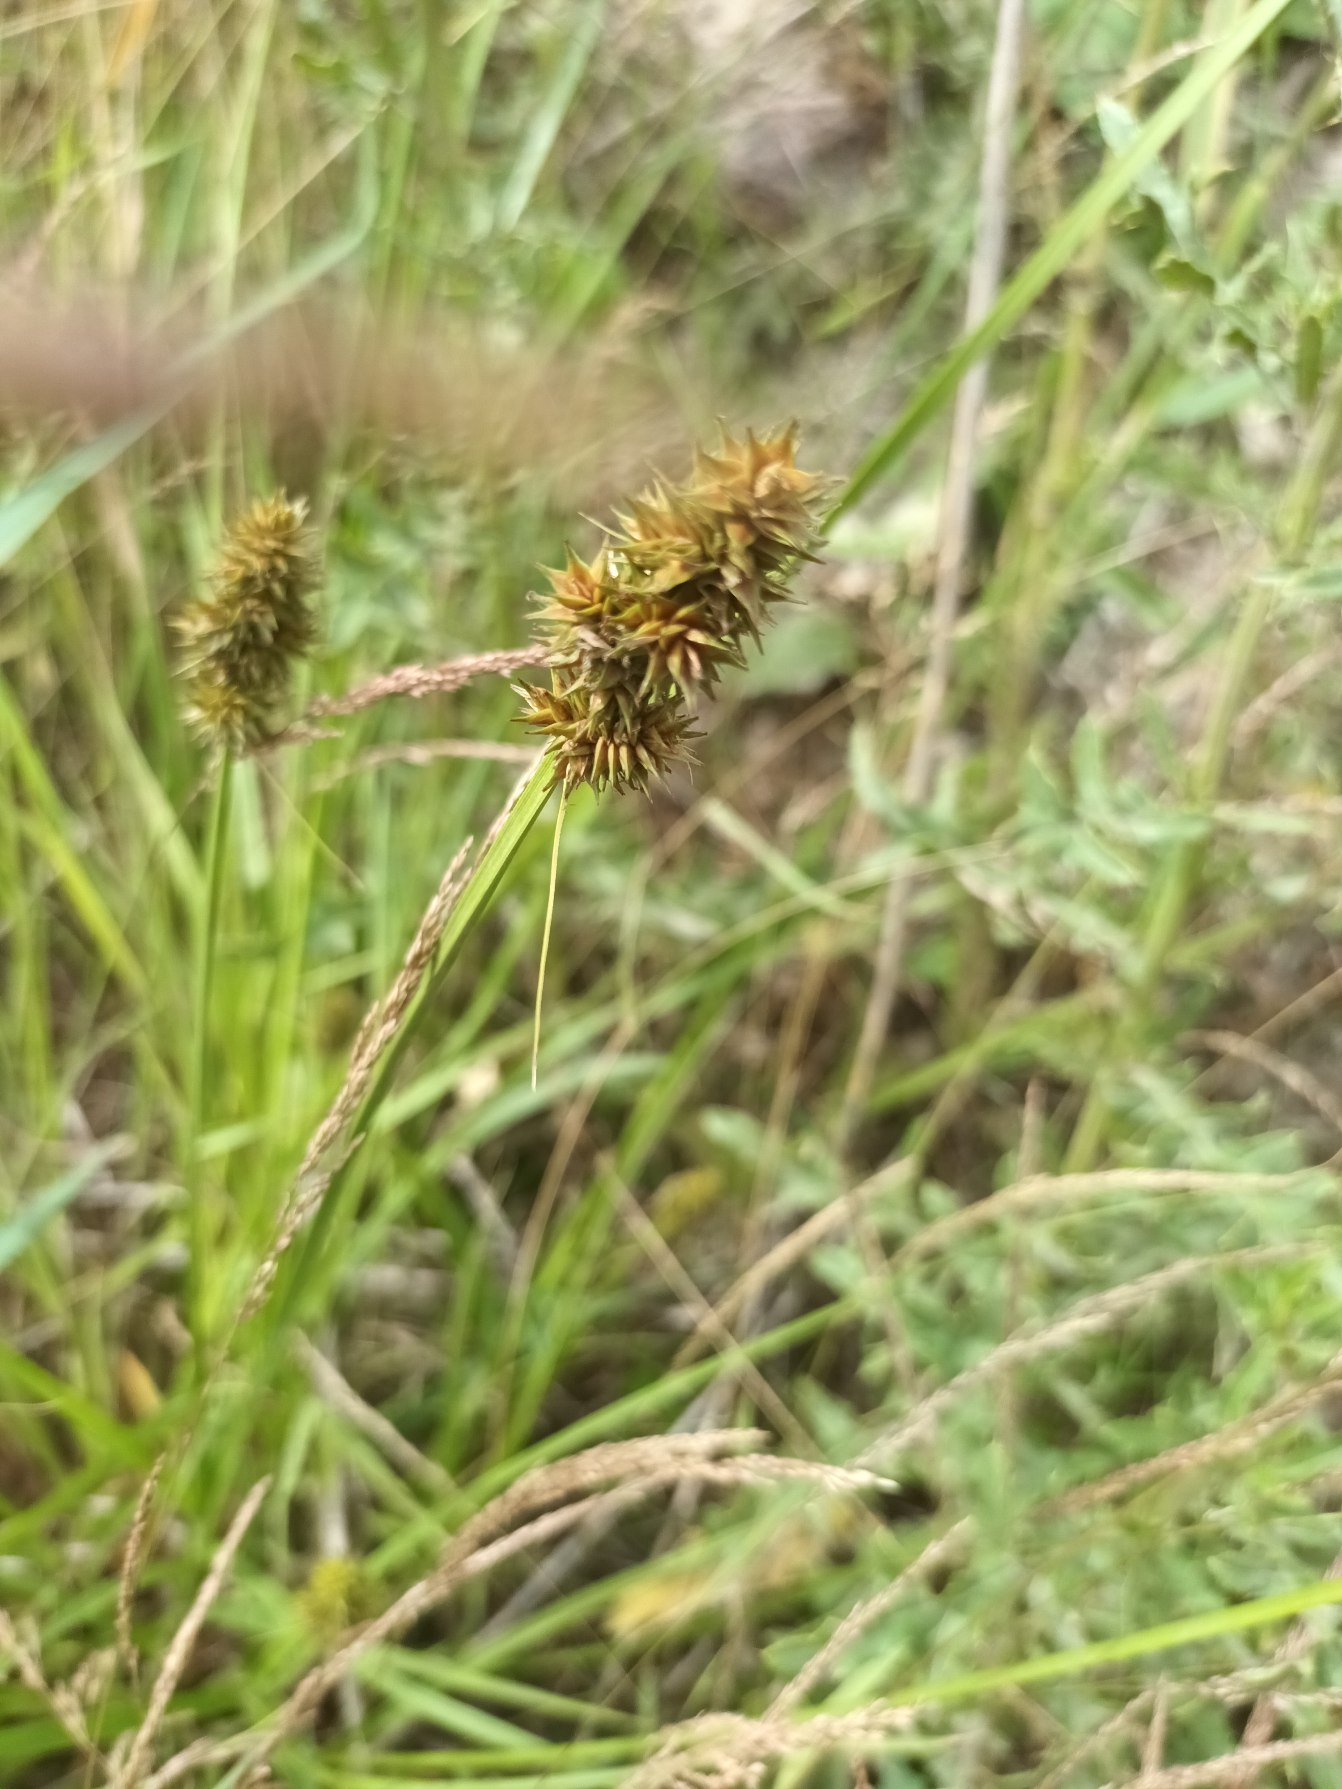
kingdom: Plantae
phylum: Tracheophyta
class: Liliopsida
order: Poales
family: Cyperaceae
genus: Carex
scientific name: Carex otrubae
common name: Sylt-star
